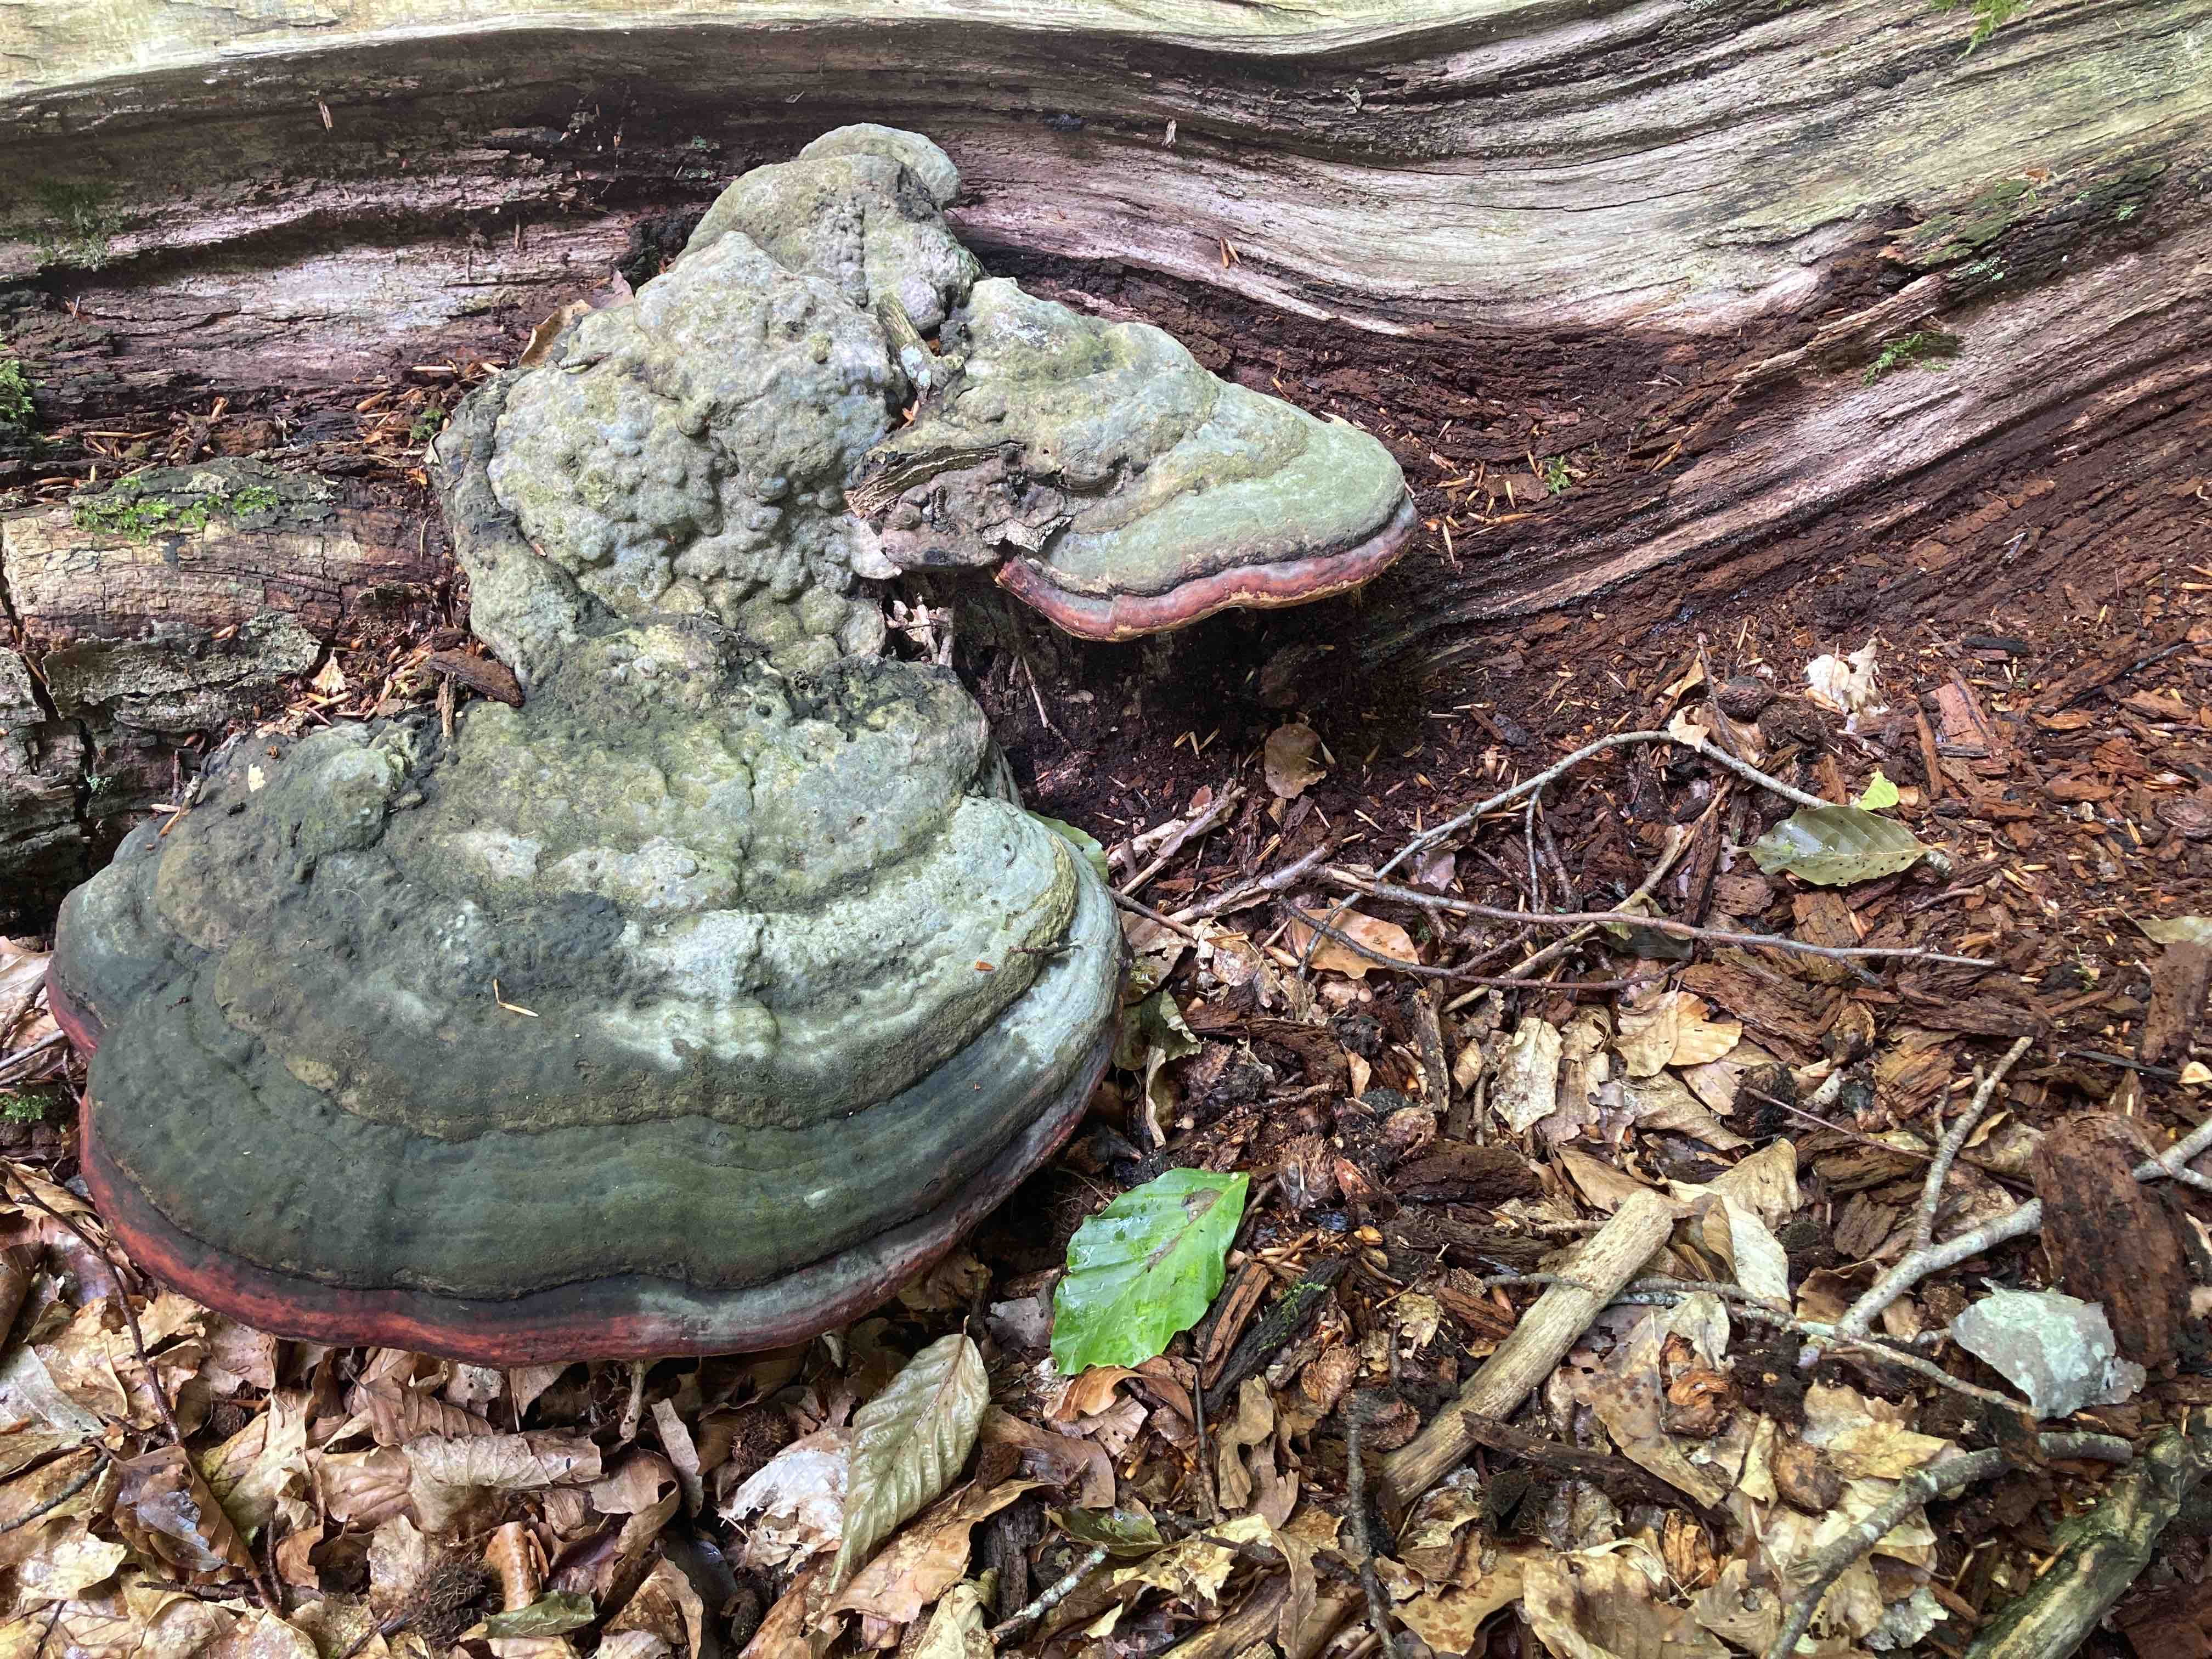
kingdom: Fungi
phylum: Basidiomycota
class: Agaricomycetes
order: Polyporales
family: Fomitopsidaceae
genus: Fomitopsis
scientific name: Fomitopsis pinicola
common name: randbæltet hovporesvamp
